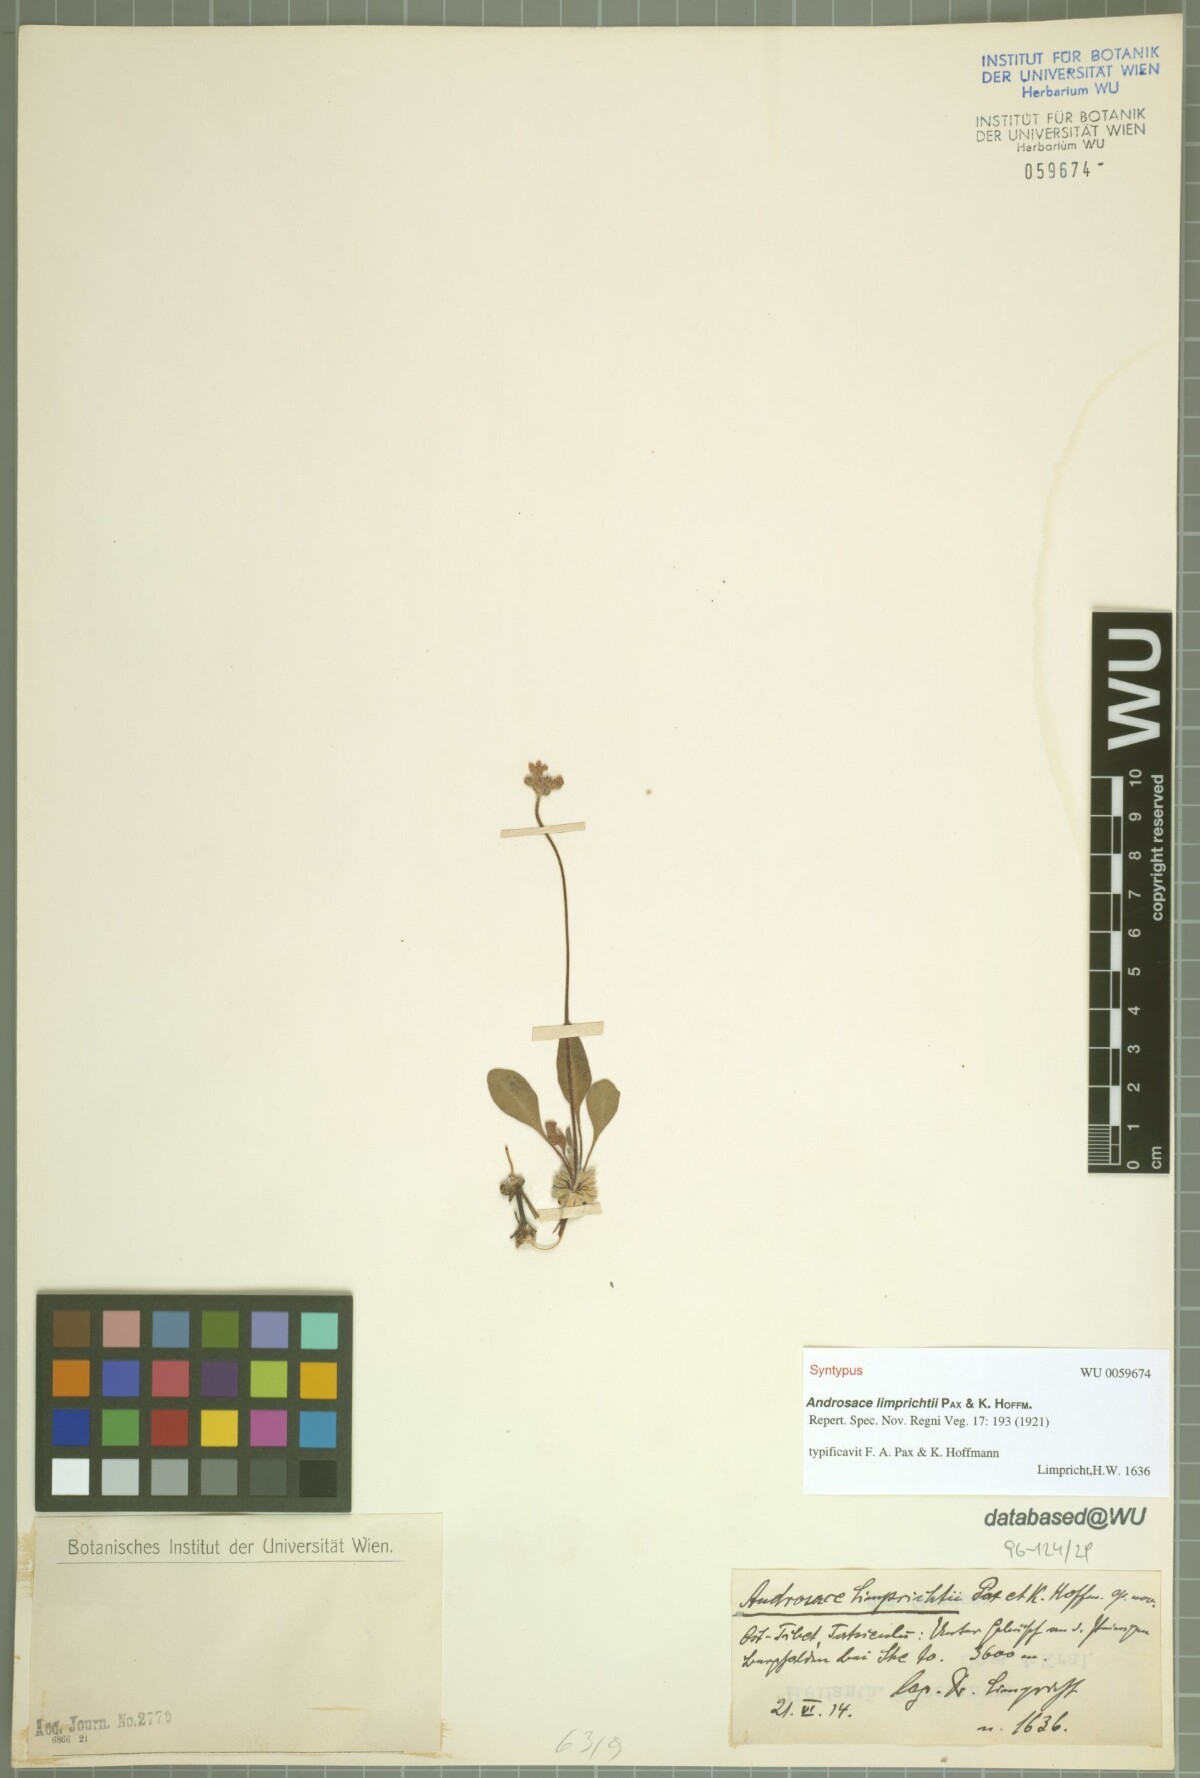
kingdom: Plantae
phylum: Tracheophyta
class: Magnoliopsida
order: Ericales
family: Primulaceae
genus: Androsace
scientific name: Androsace limprichtii
